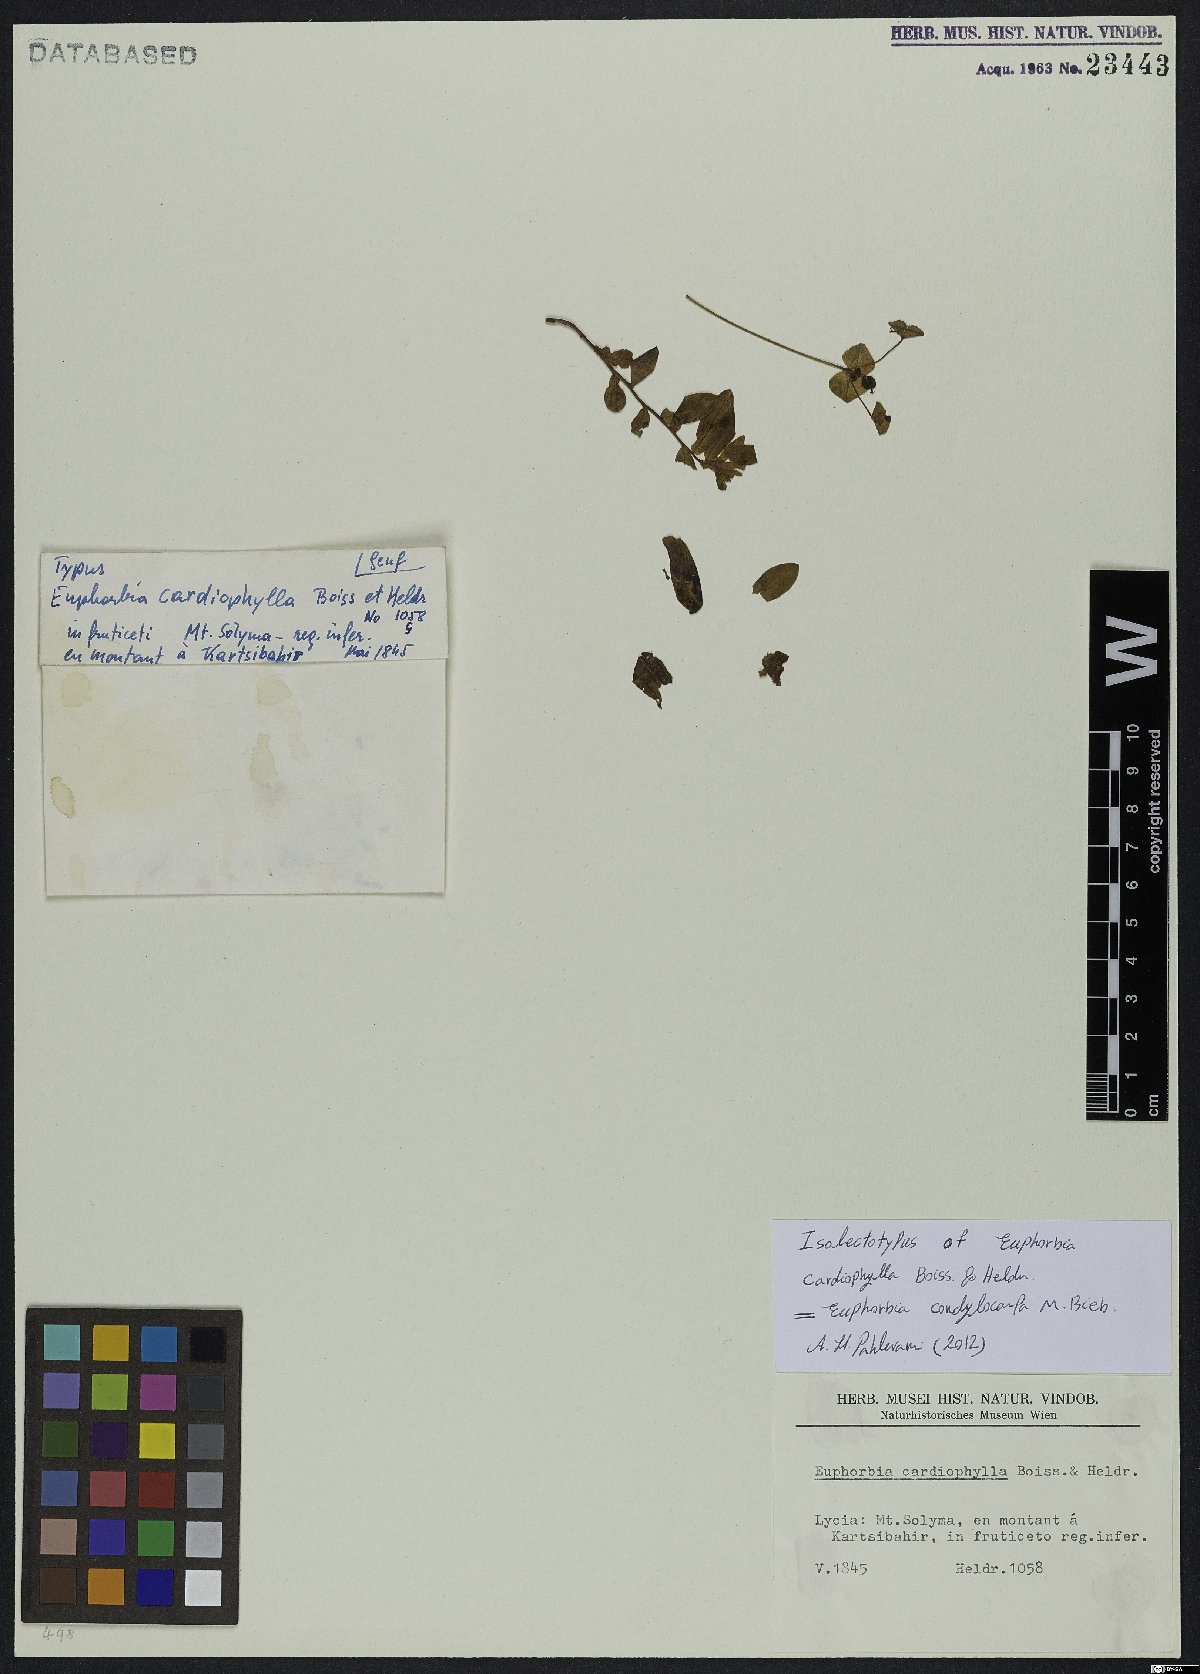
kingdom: Plantae
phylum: Tracheophyta
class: Magnoliopsida
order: Malpighiales
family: Euphorbiaceae
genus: Euphorbia
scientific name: Euphorbia condylocarpa
